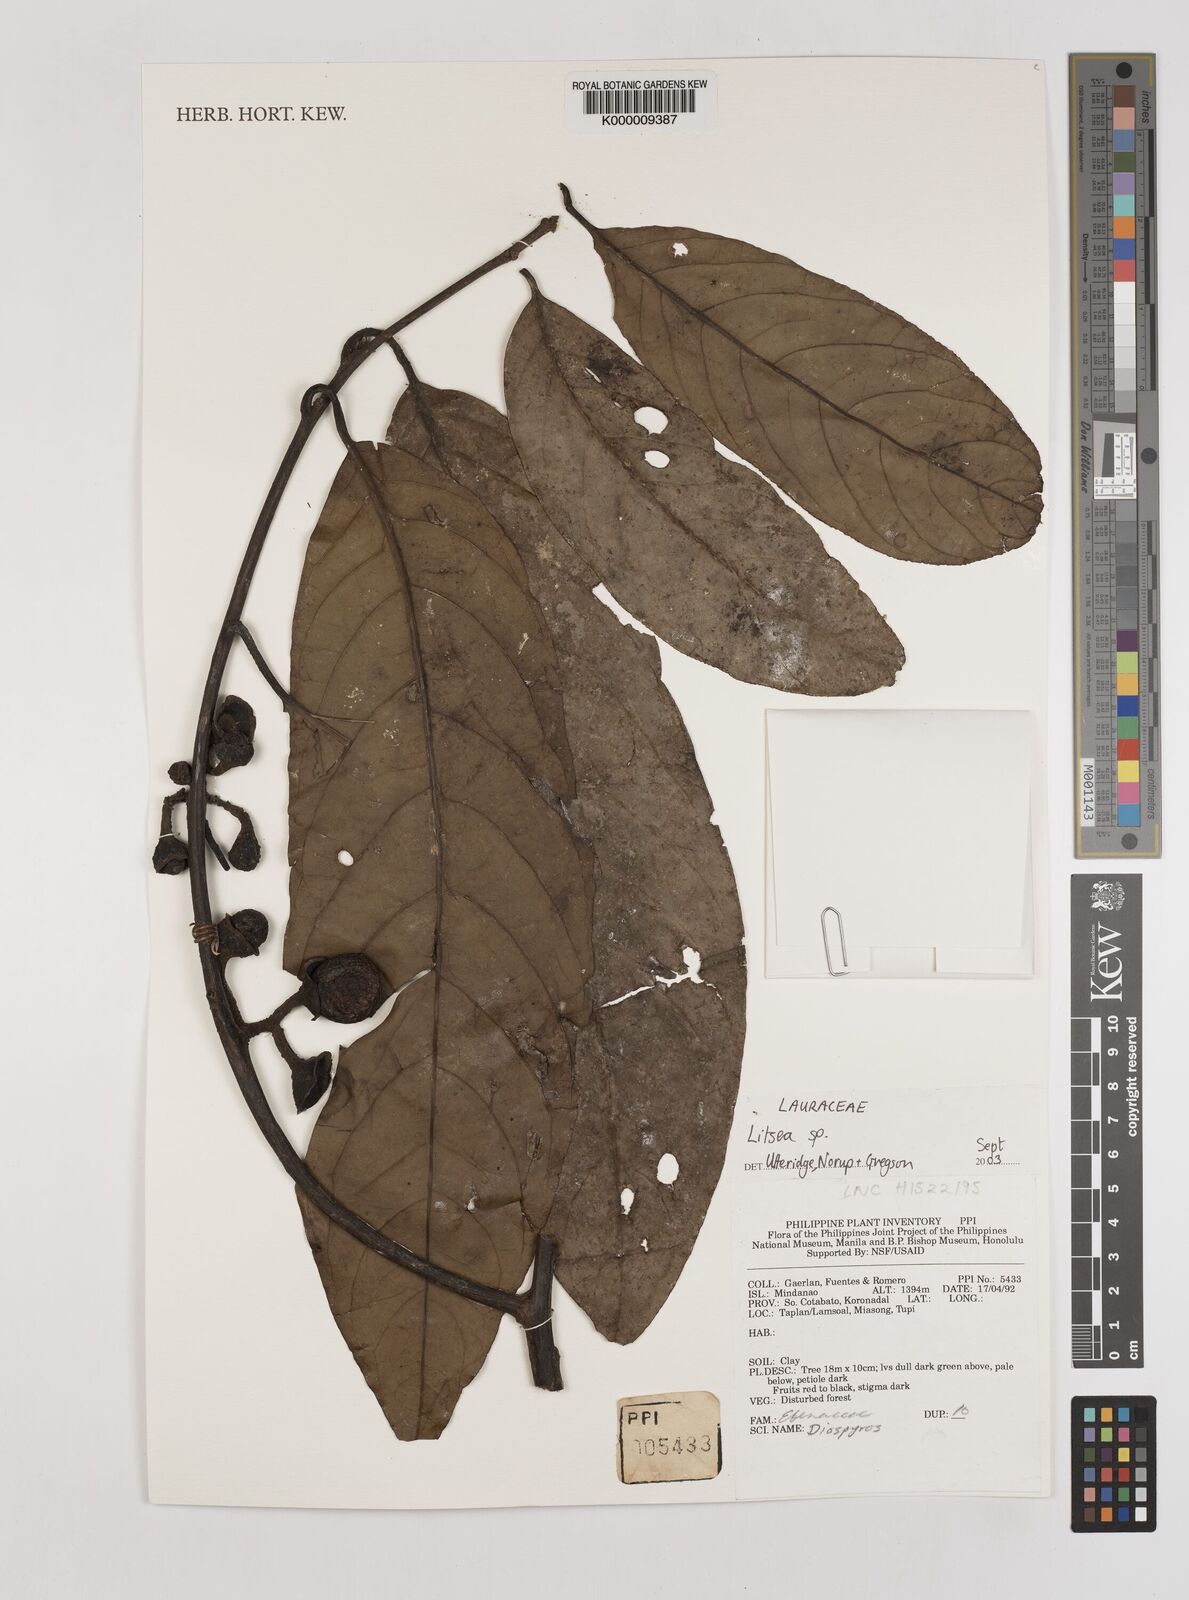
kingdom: Plantae
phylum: Tracheophyta
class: Magnoliopsida
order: Laurales
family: Lauraceae
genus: Litsea
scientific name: Litsea
